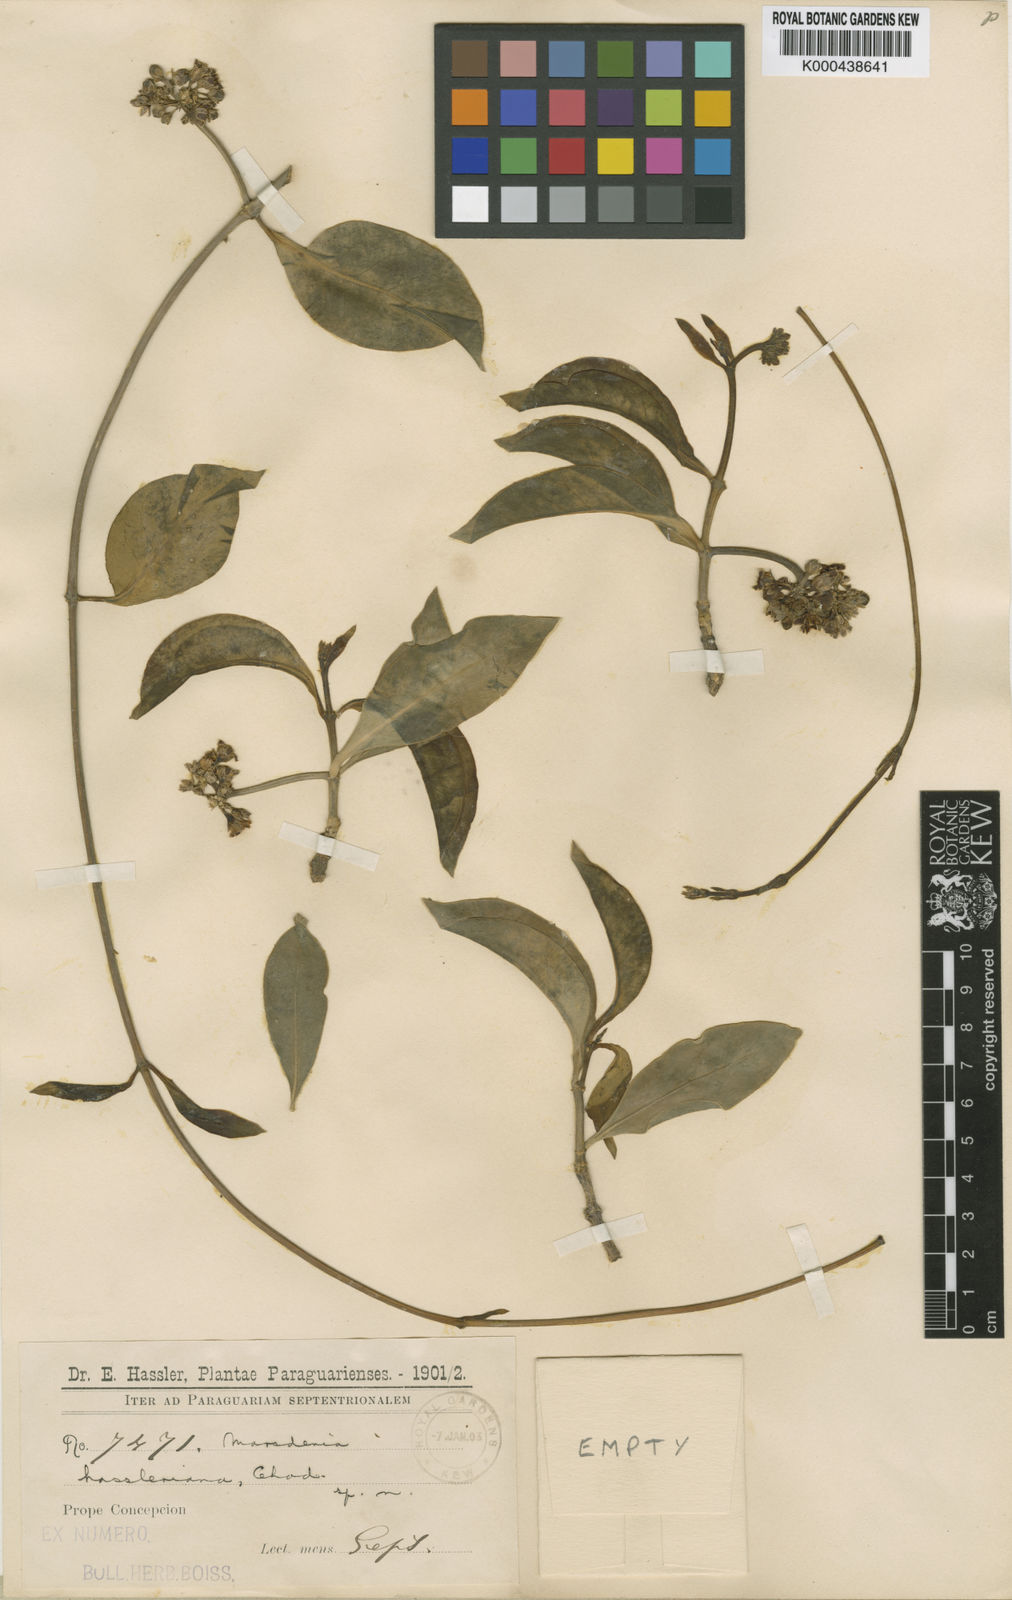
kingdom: Plantae
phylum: Tracheophyta
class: Magnoliopsida
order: Gentianales
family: Apocynaceae
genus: Ruehssia
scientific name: Ruehssia hassleriana
